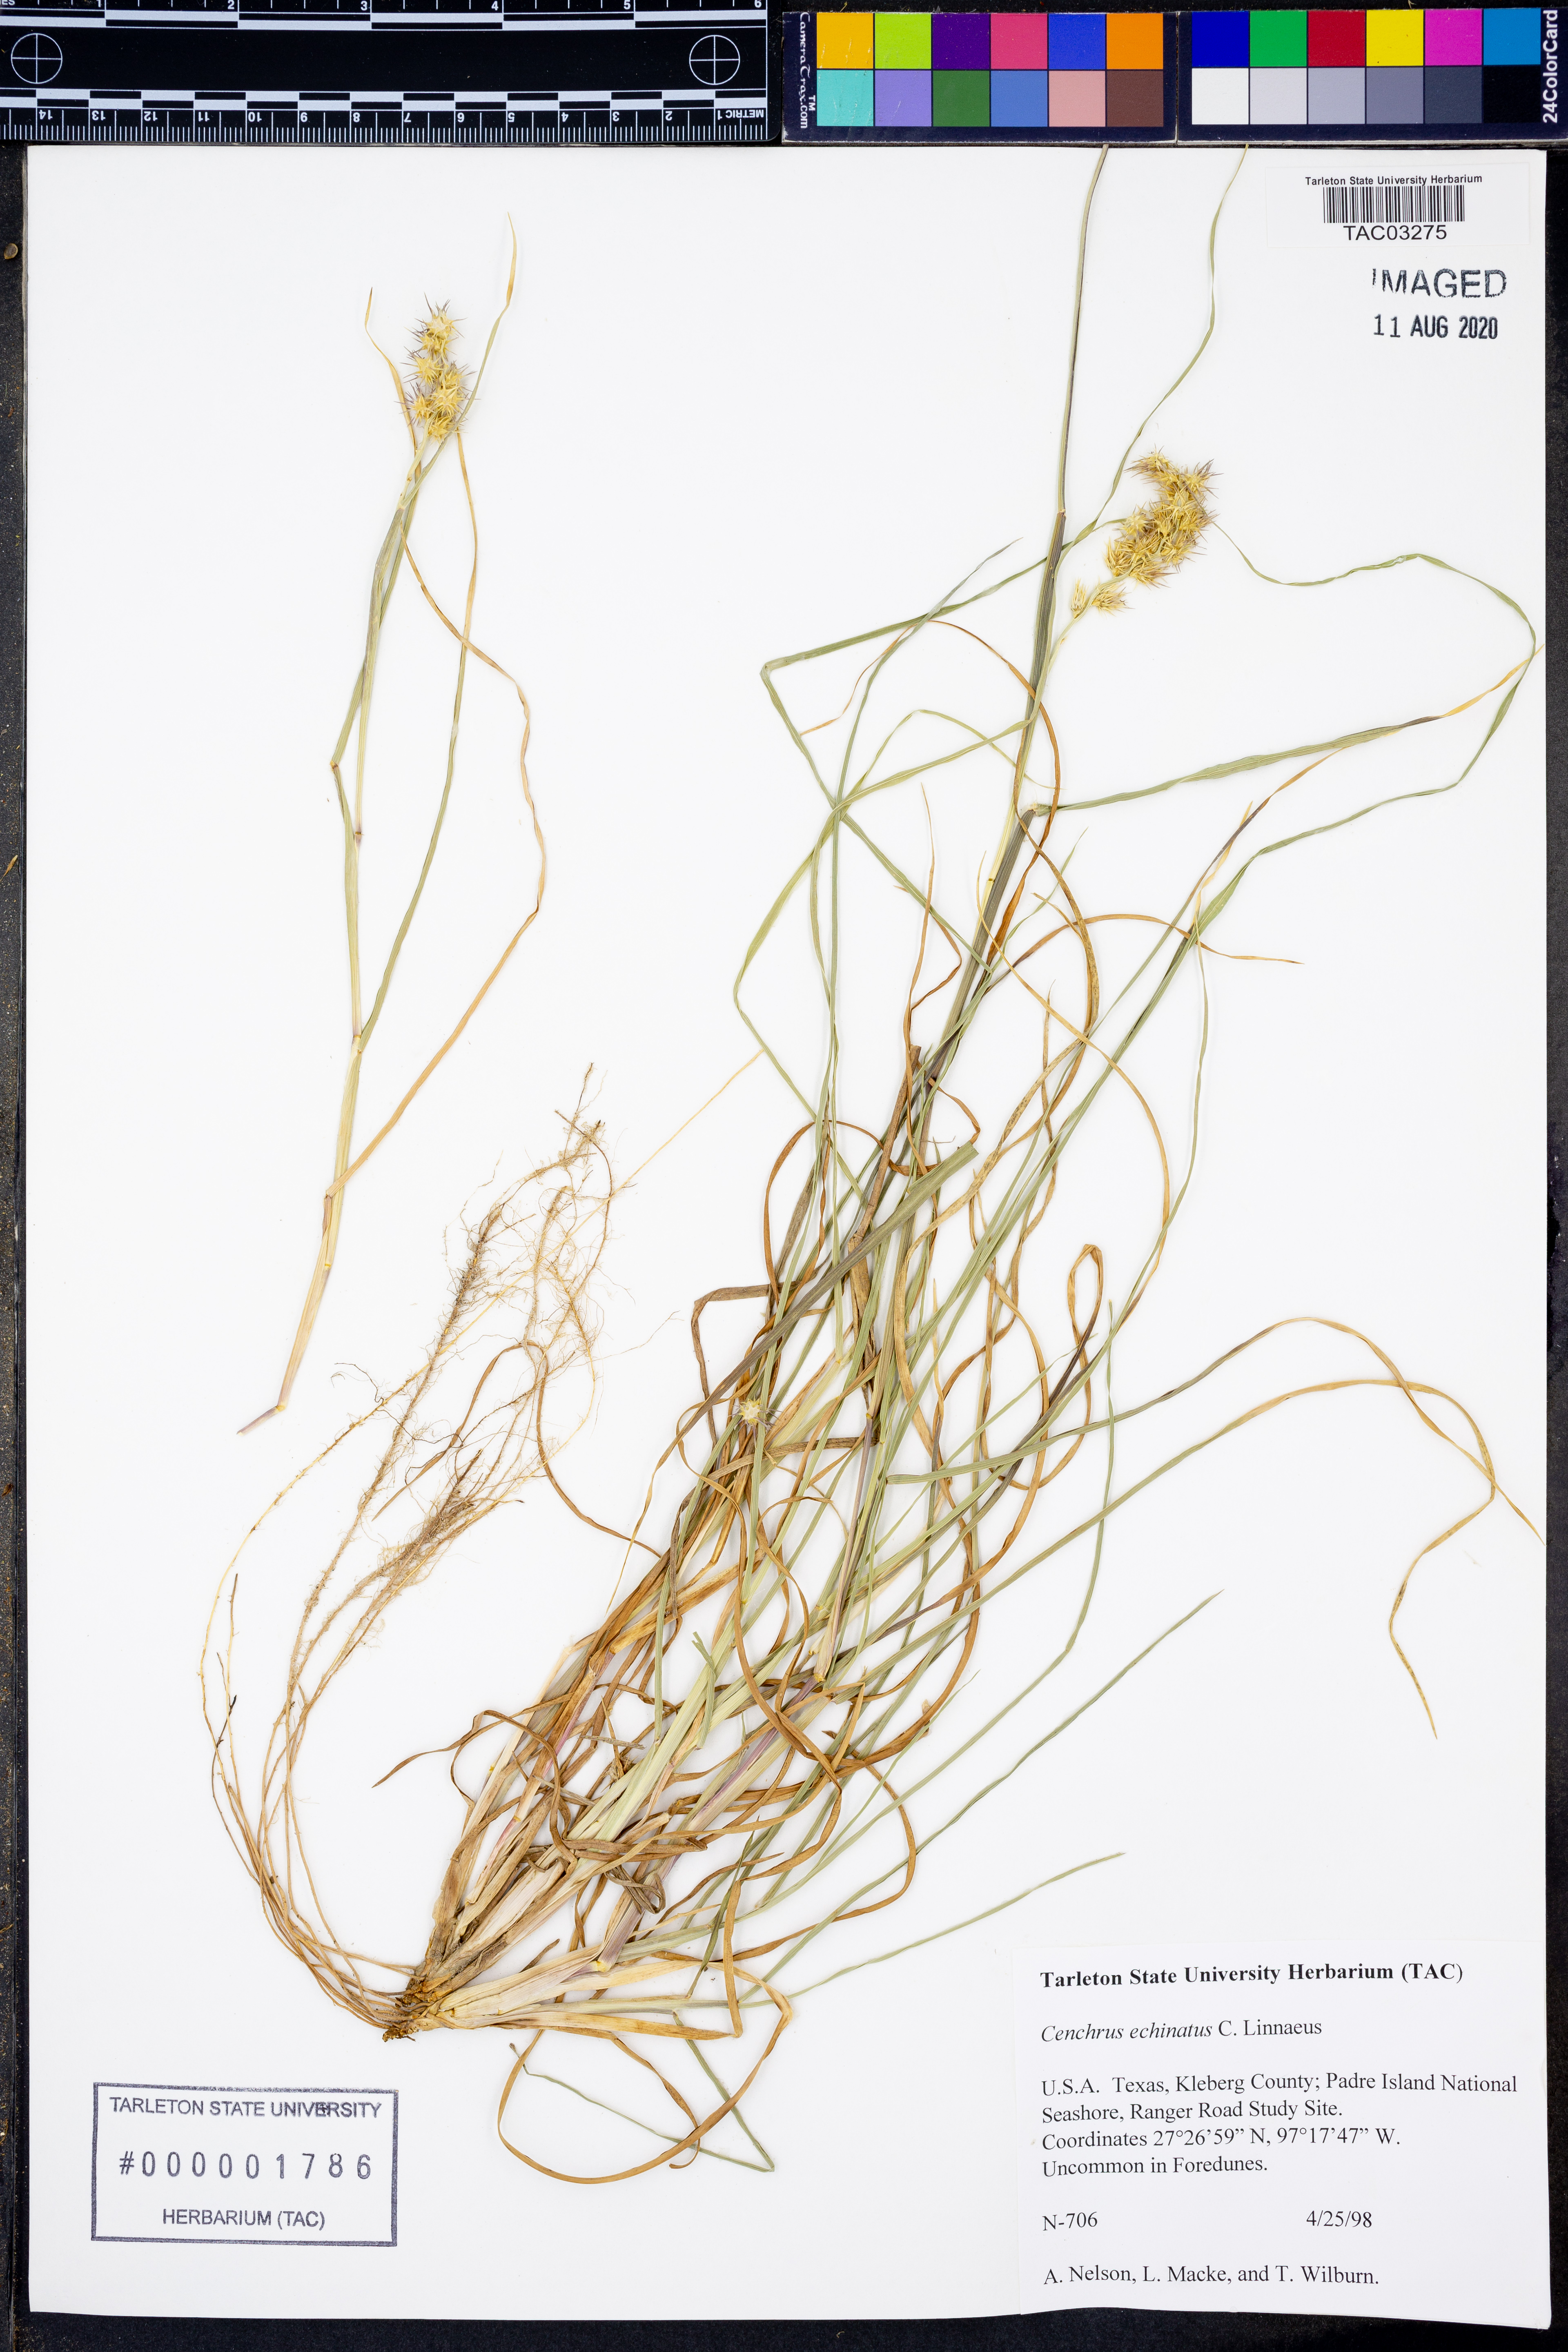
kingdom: Plantae
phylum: Tracheophyta
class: Liliopsida
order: Poales
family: Poaceae
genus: Cenchrus
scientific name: Cenchrus echinatus
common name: Southern sandbur
